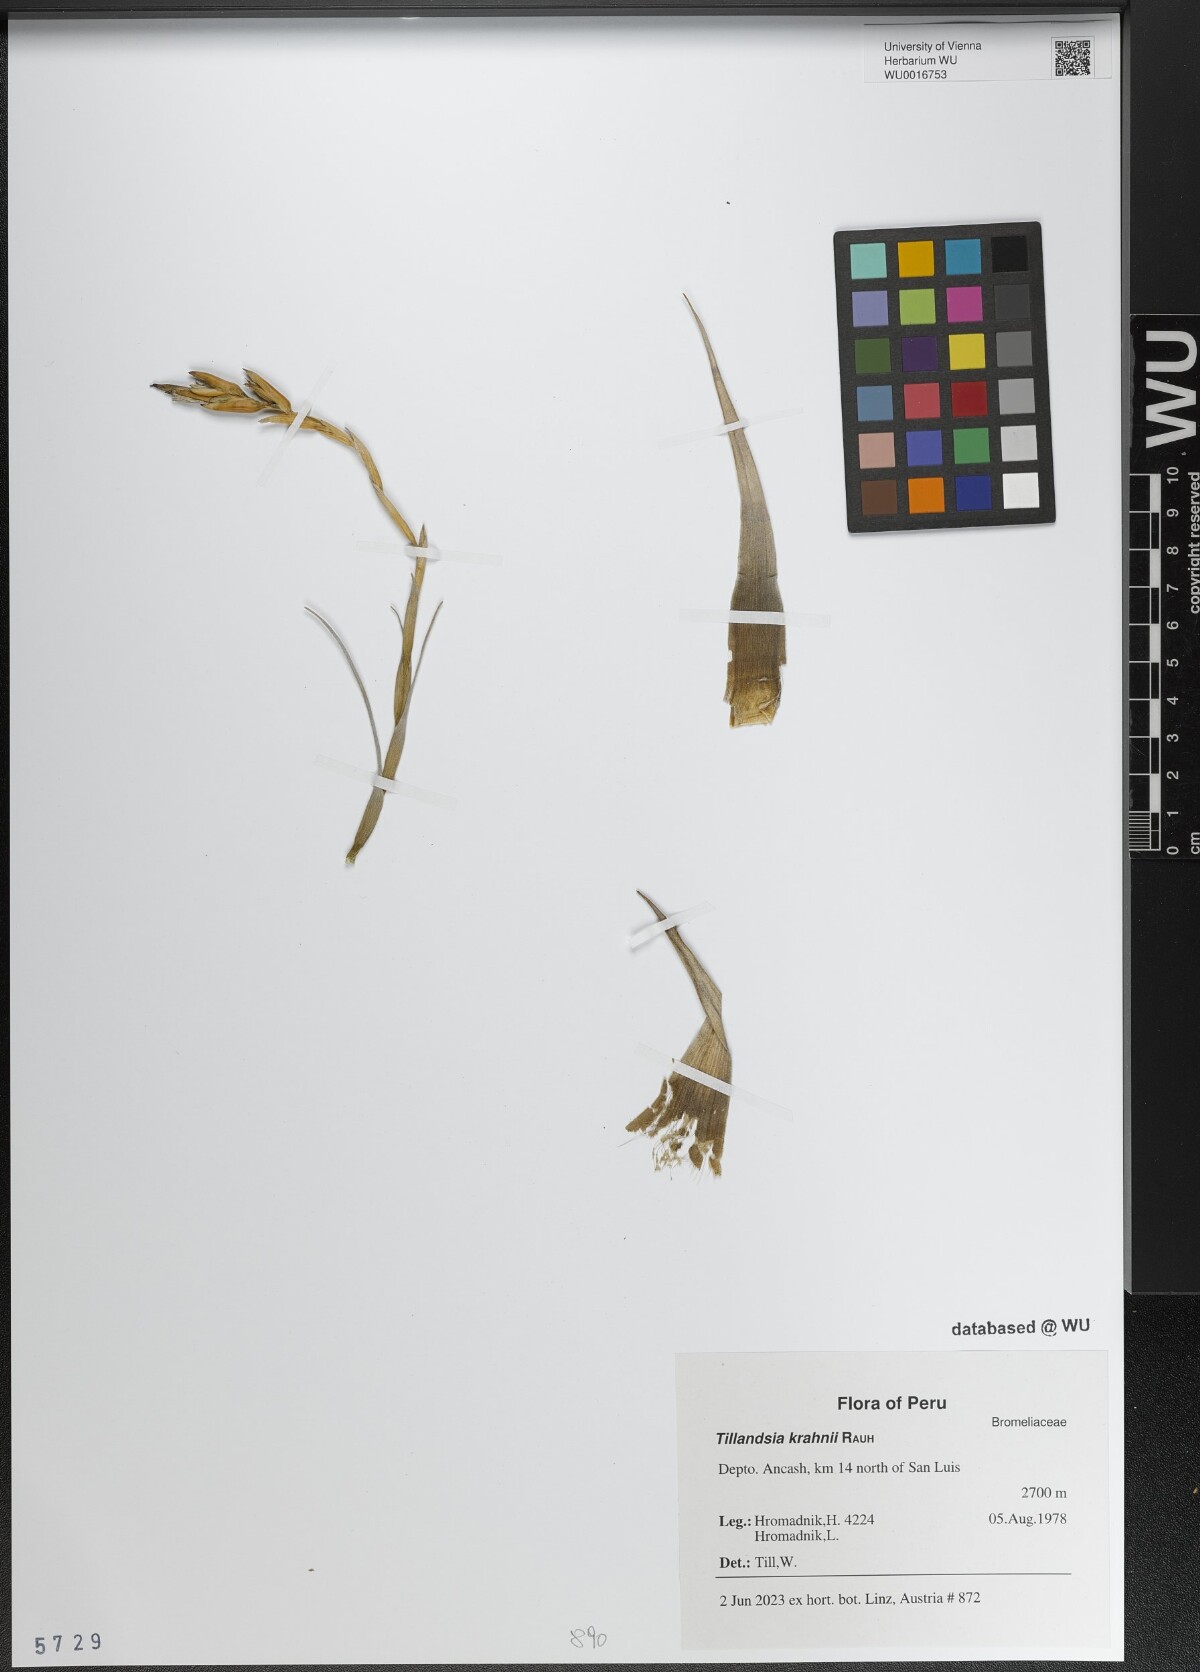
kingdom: Plantae
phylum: Tracheophyta
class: Liliopsida
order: Poales
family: Bromeliaceae
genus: Tillandsia
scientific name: Tillandsia krahnii
